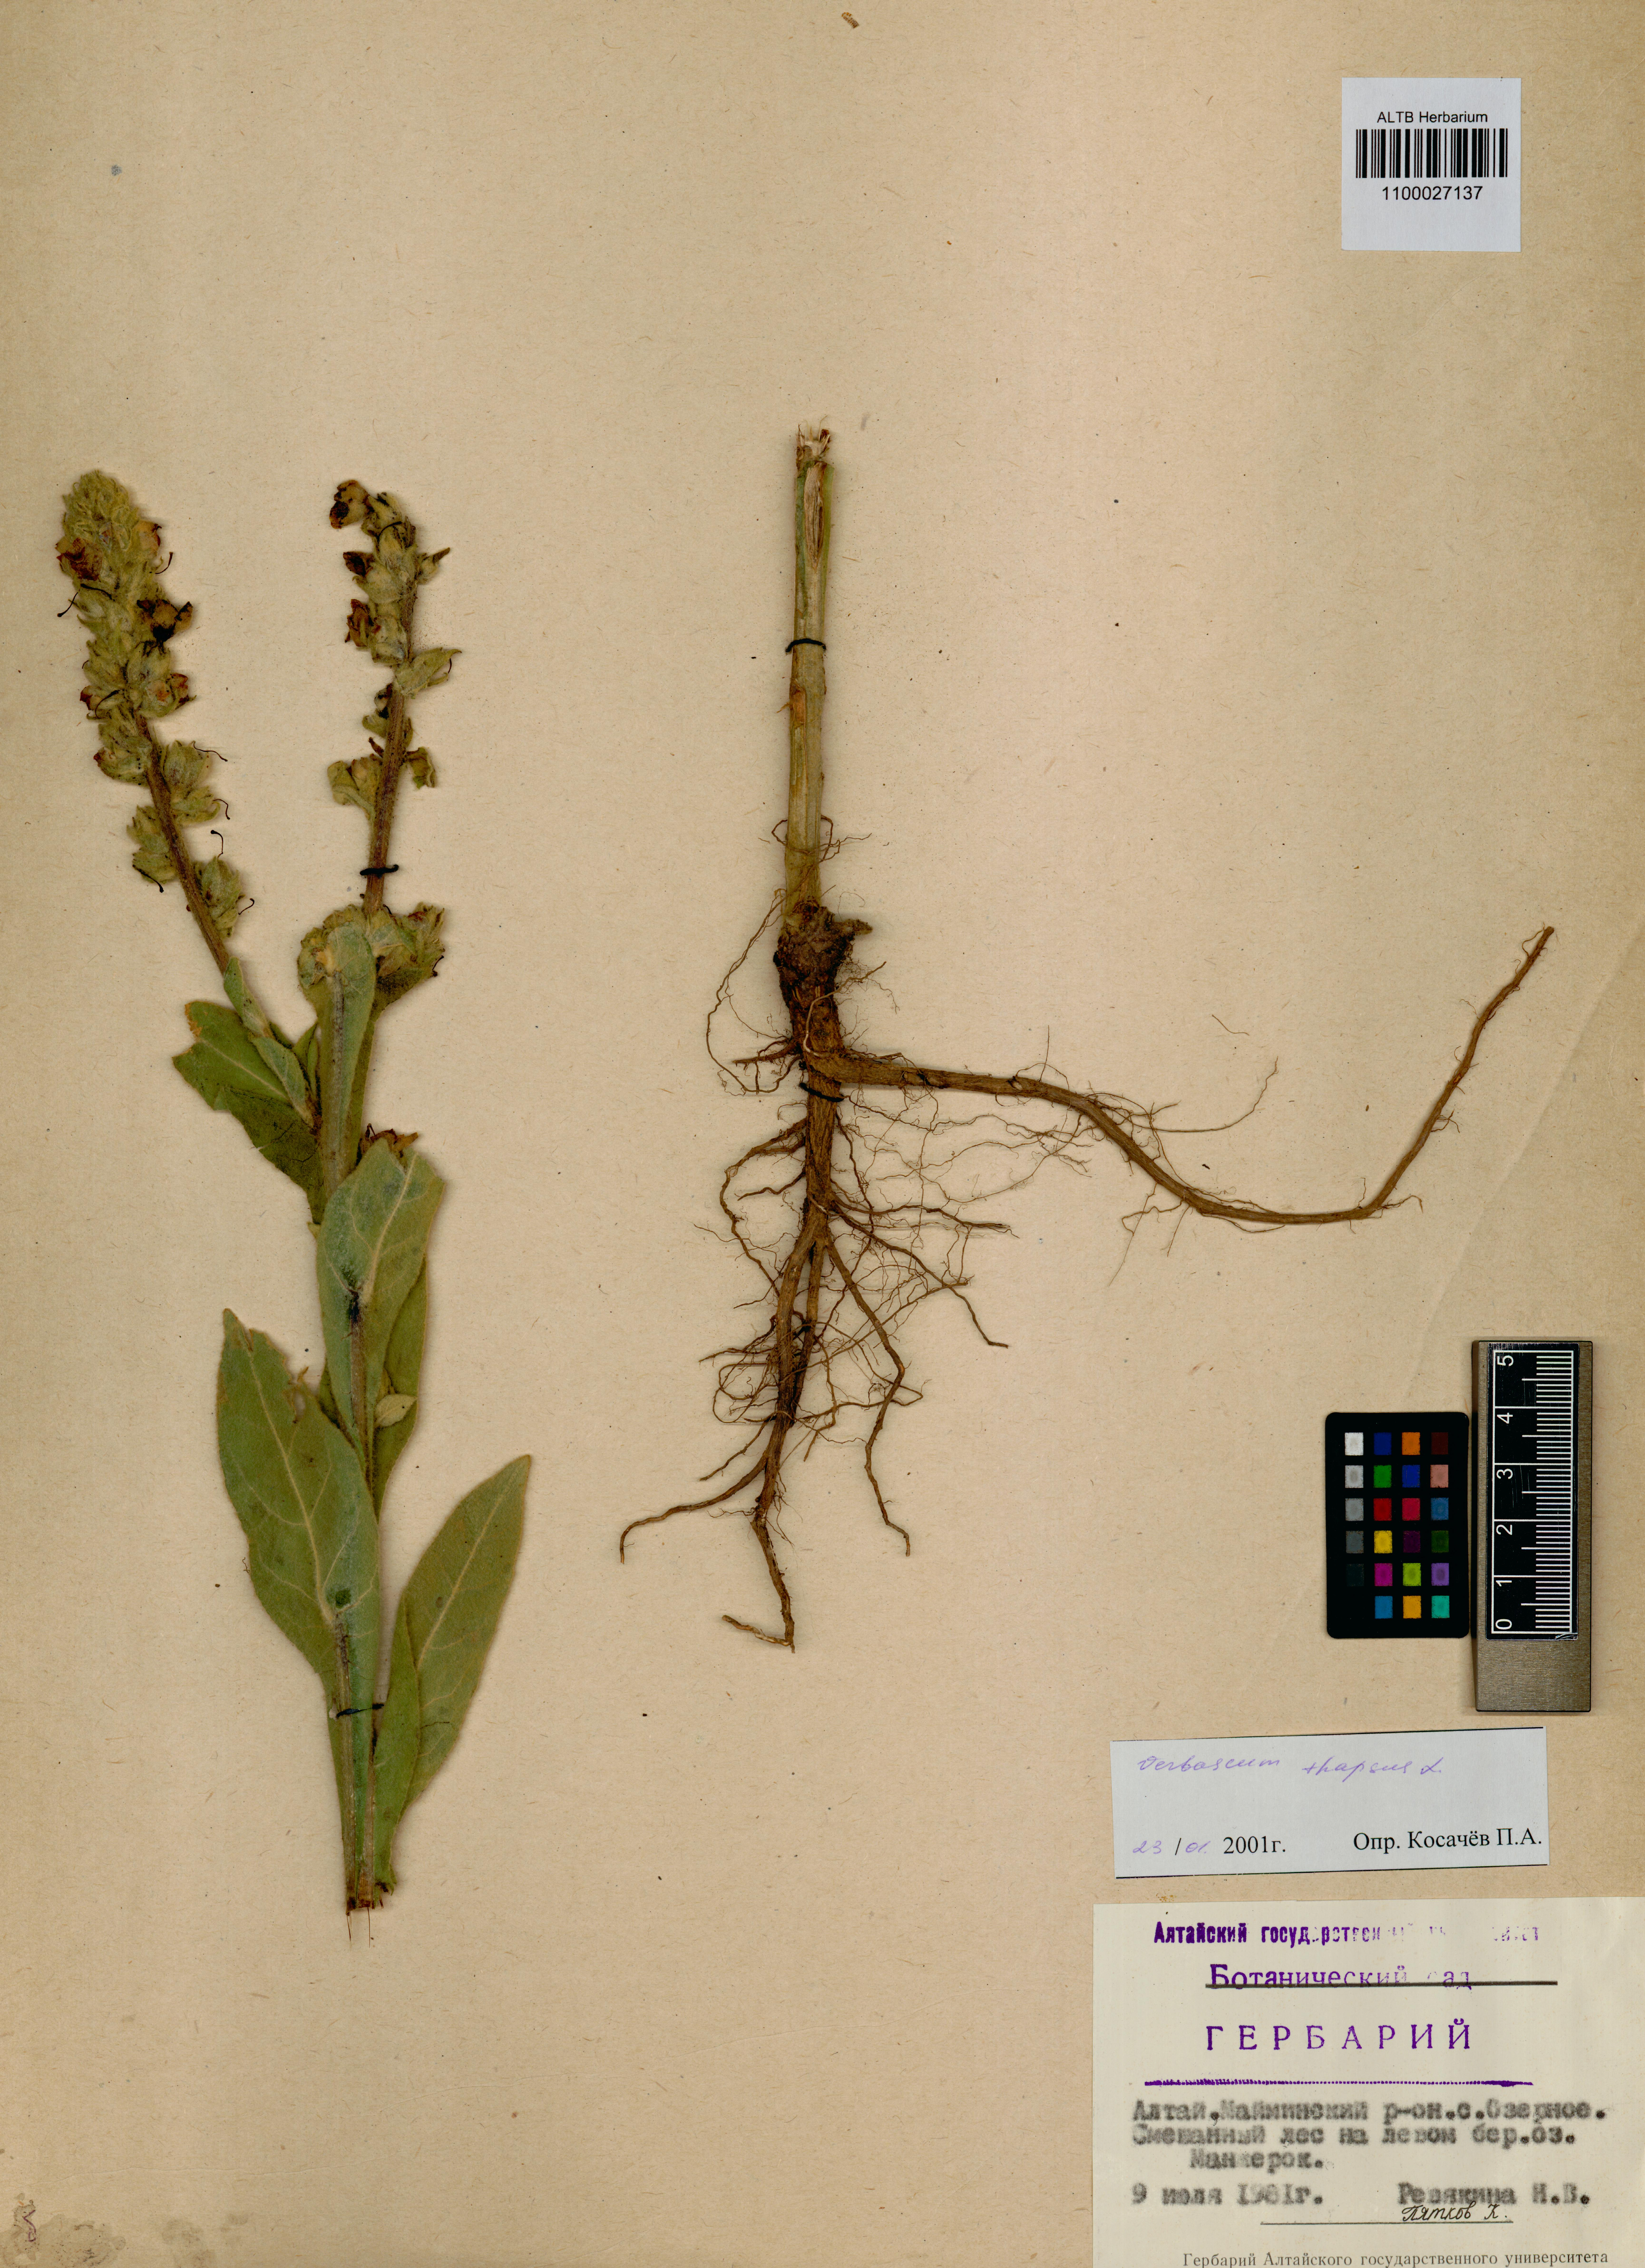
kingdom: Plantae
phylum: Tracheophyta
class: Magnoliopsida
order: Lamiales
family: Scrophulariaceae
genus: Verbascum
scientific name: Verbascum thapsus
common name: Common mullein
